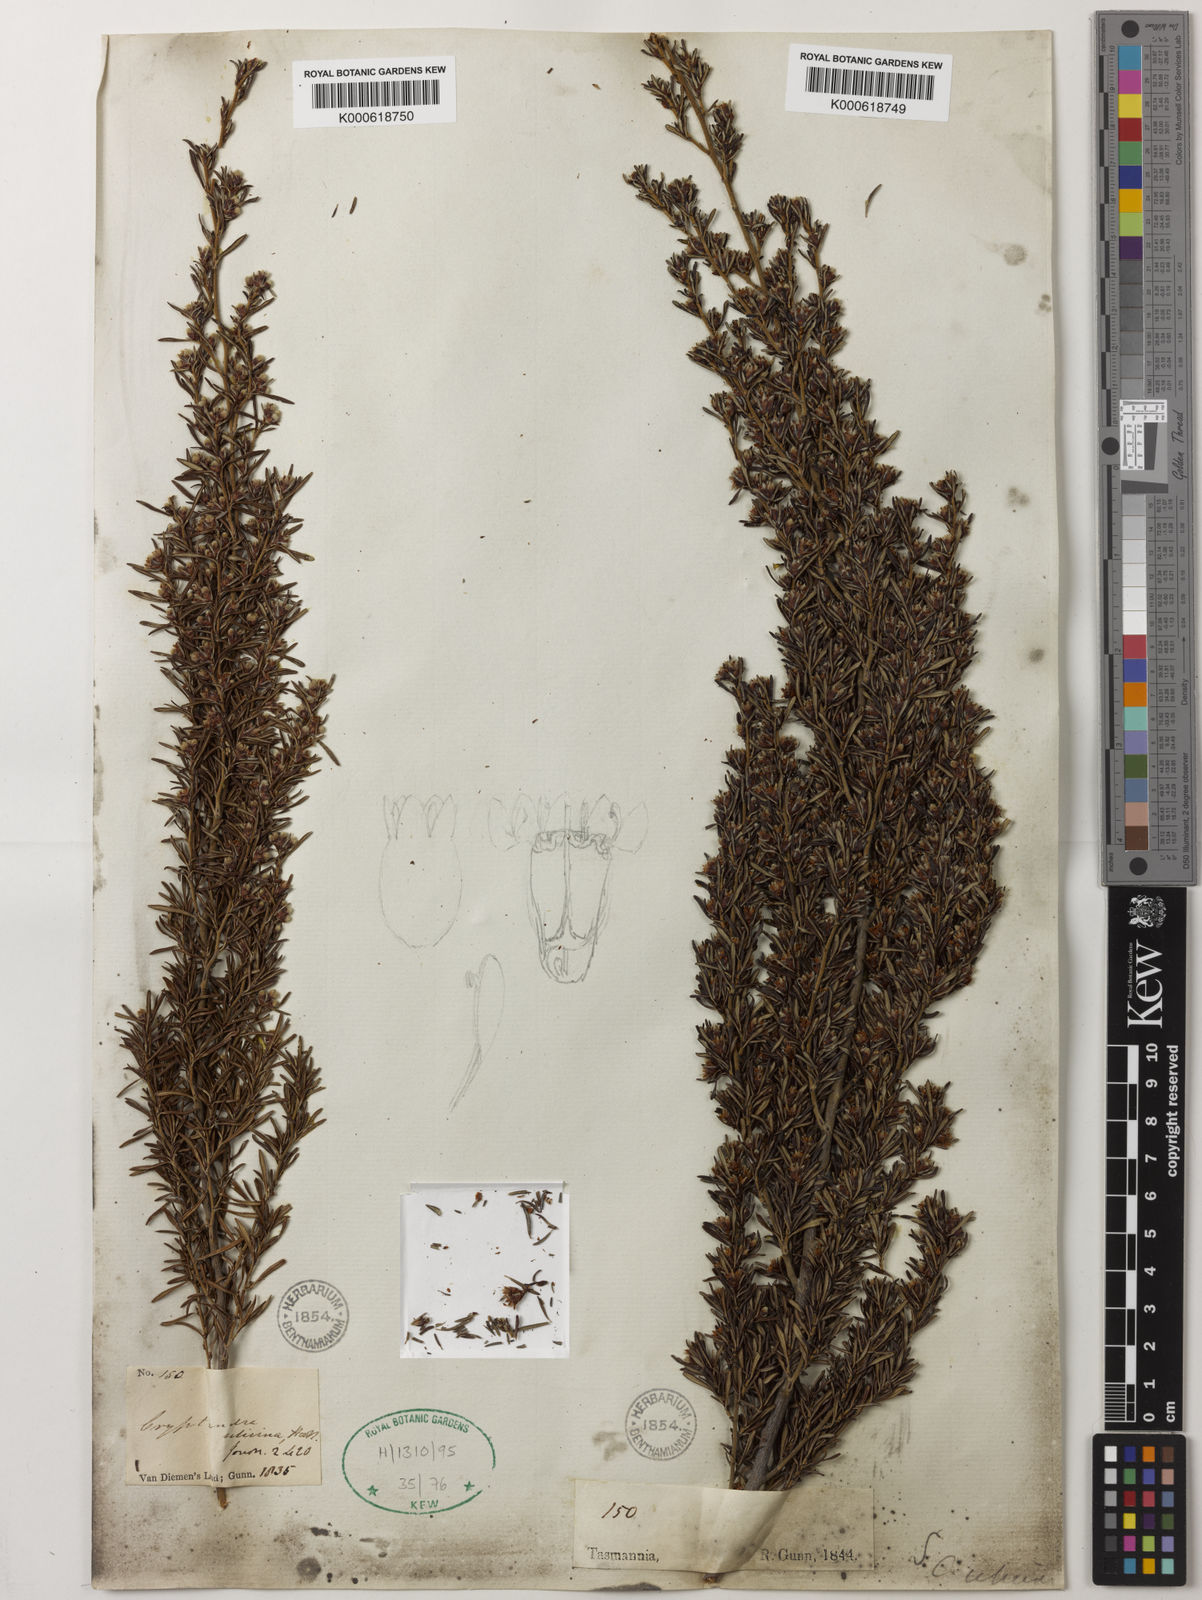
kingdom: Plantae
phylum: Tracheophyta
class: Magnoliopsida
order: Rosales
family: Rhamnaceae
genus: Spyridium
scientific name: Spyridium ulicinum
